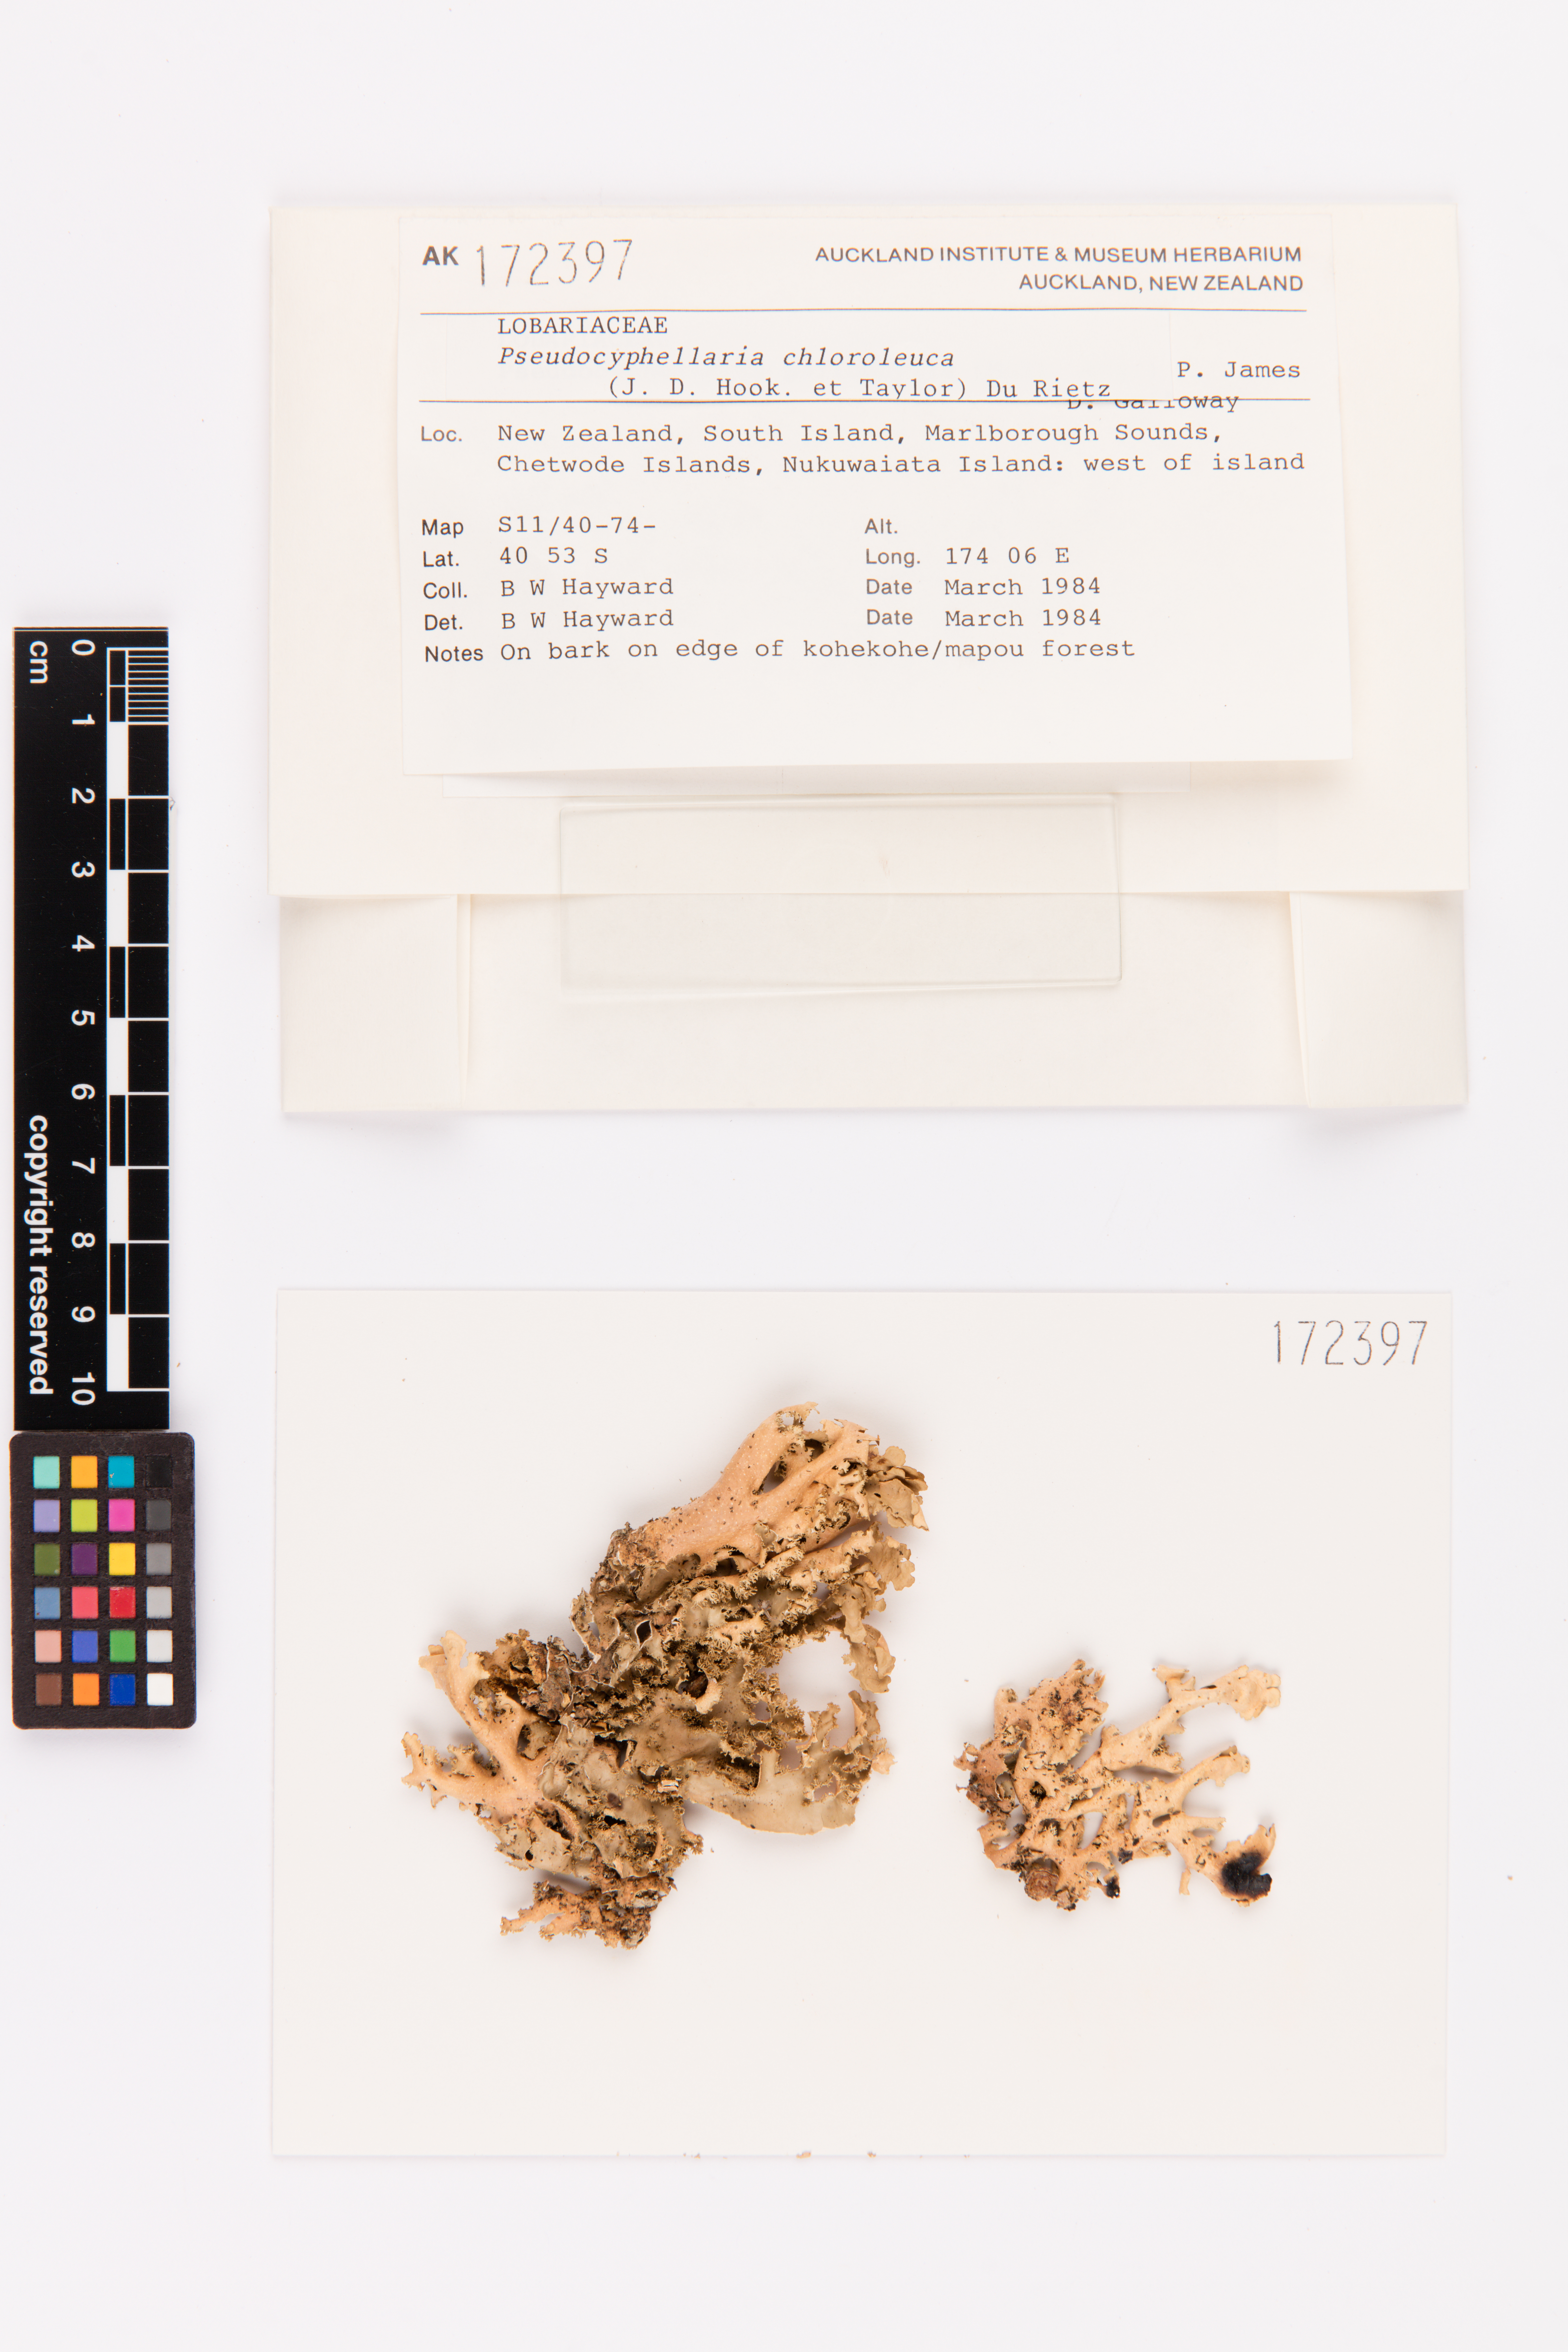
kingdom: Fungi
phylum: Ascomycota
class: Lecanoromycetes
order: Peltigerales
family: Lobariaceae
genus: Pseudocyphellaria
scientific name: Pseudocyphellaria chloroleuca
